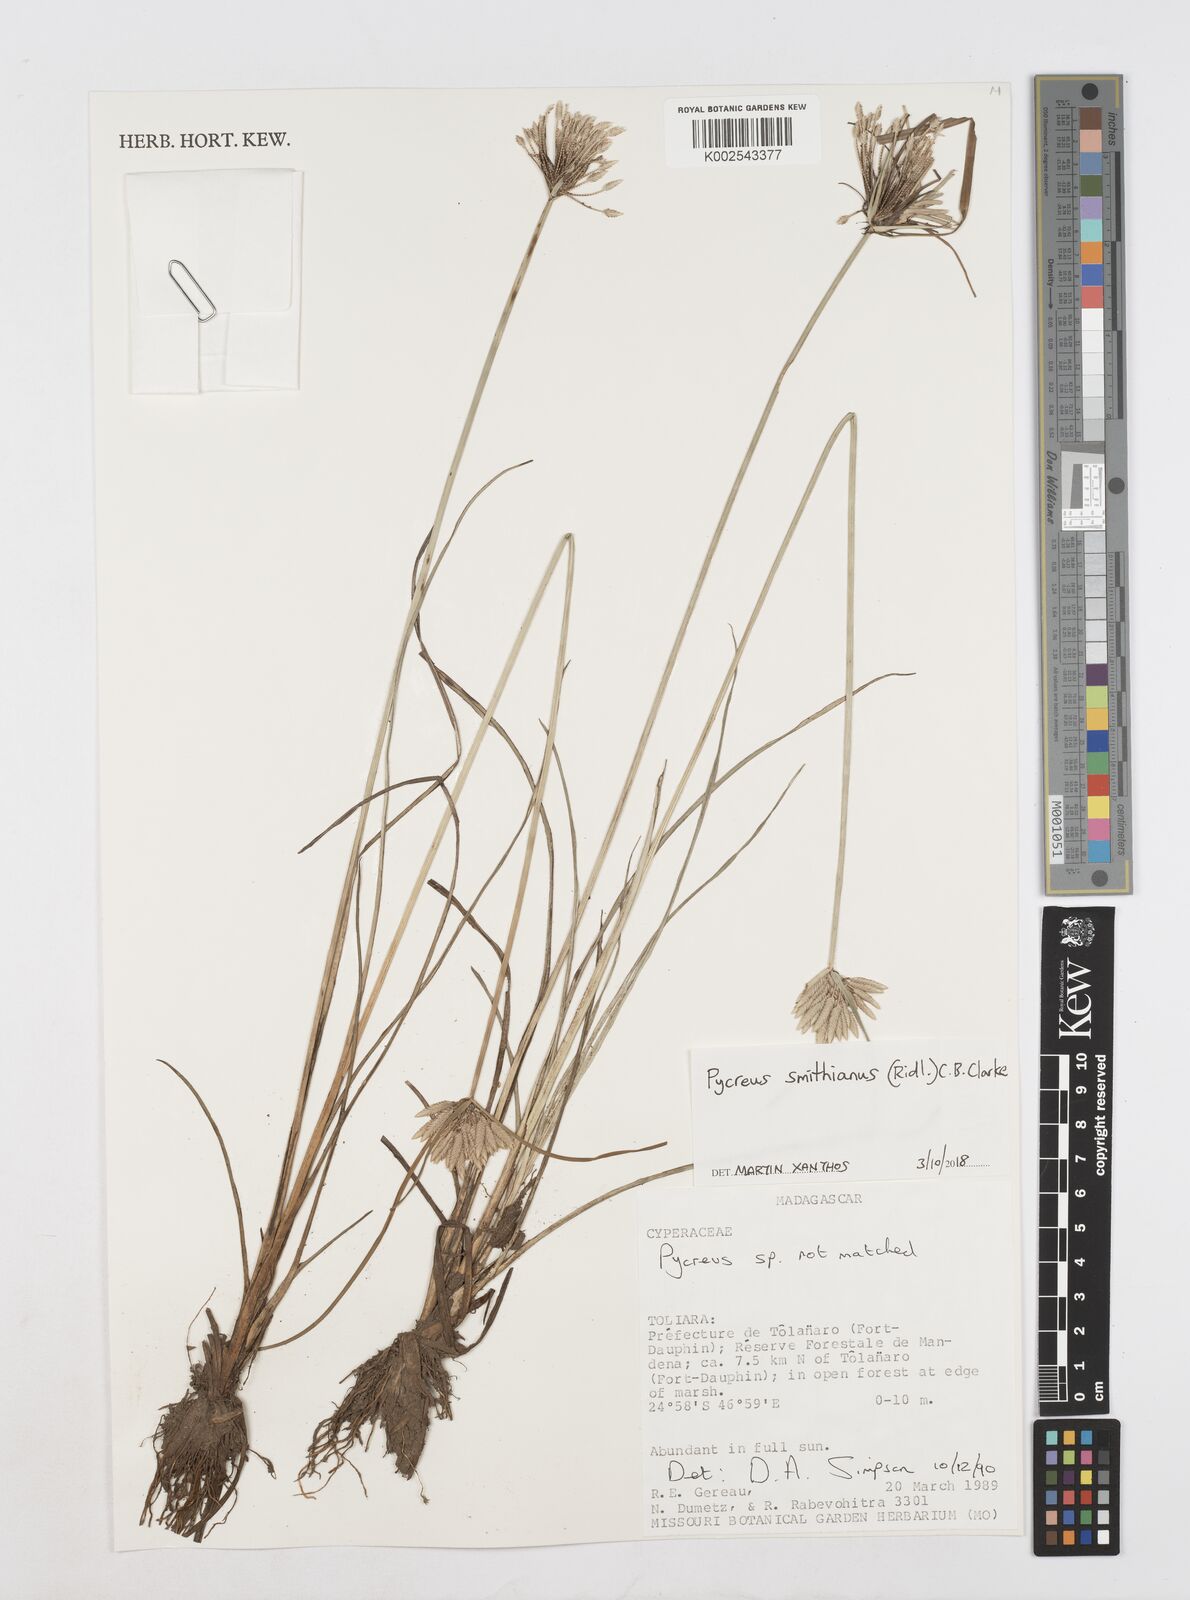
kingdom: Plantae
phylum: Tracheophyta
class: Liliopsida
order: Poales
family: Cyperaceae
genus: Cyperus
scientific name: Cyperus smithianus
